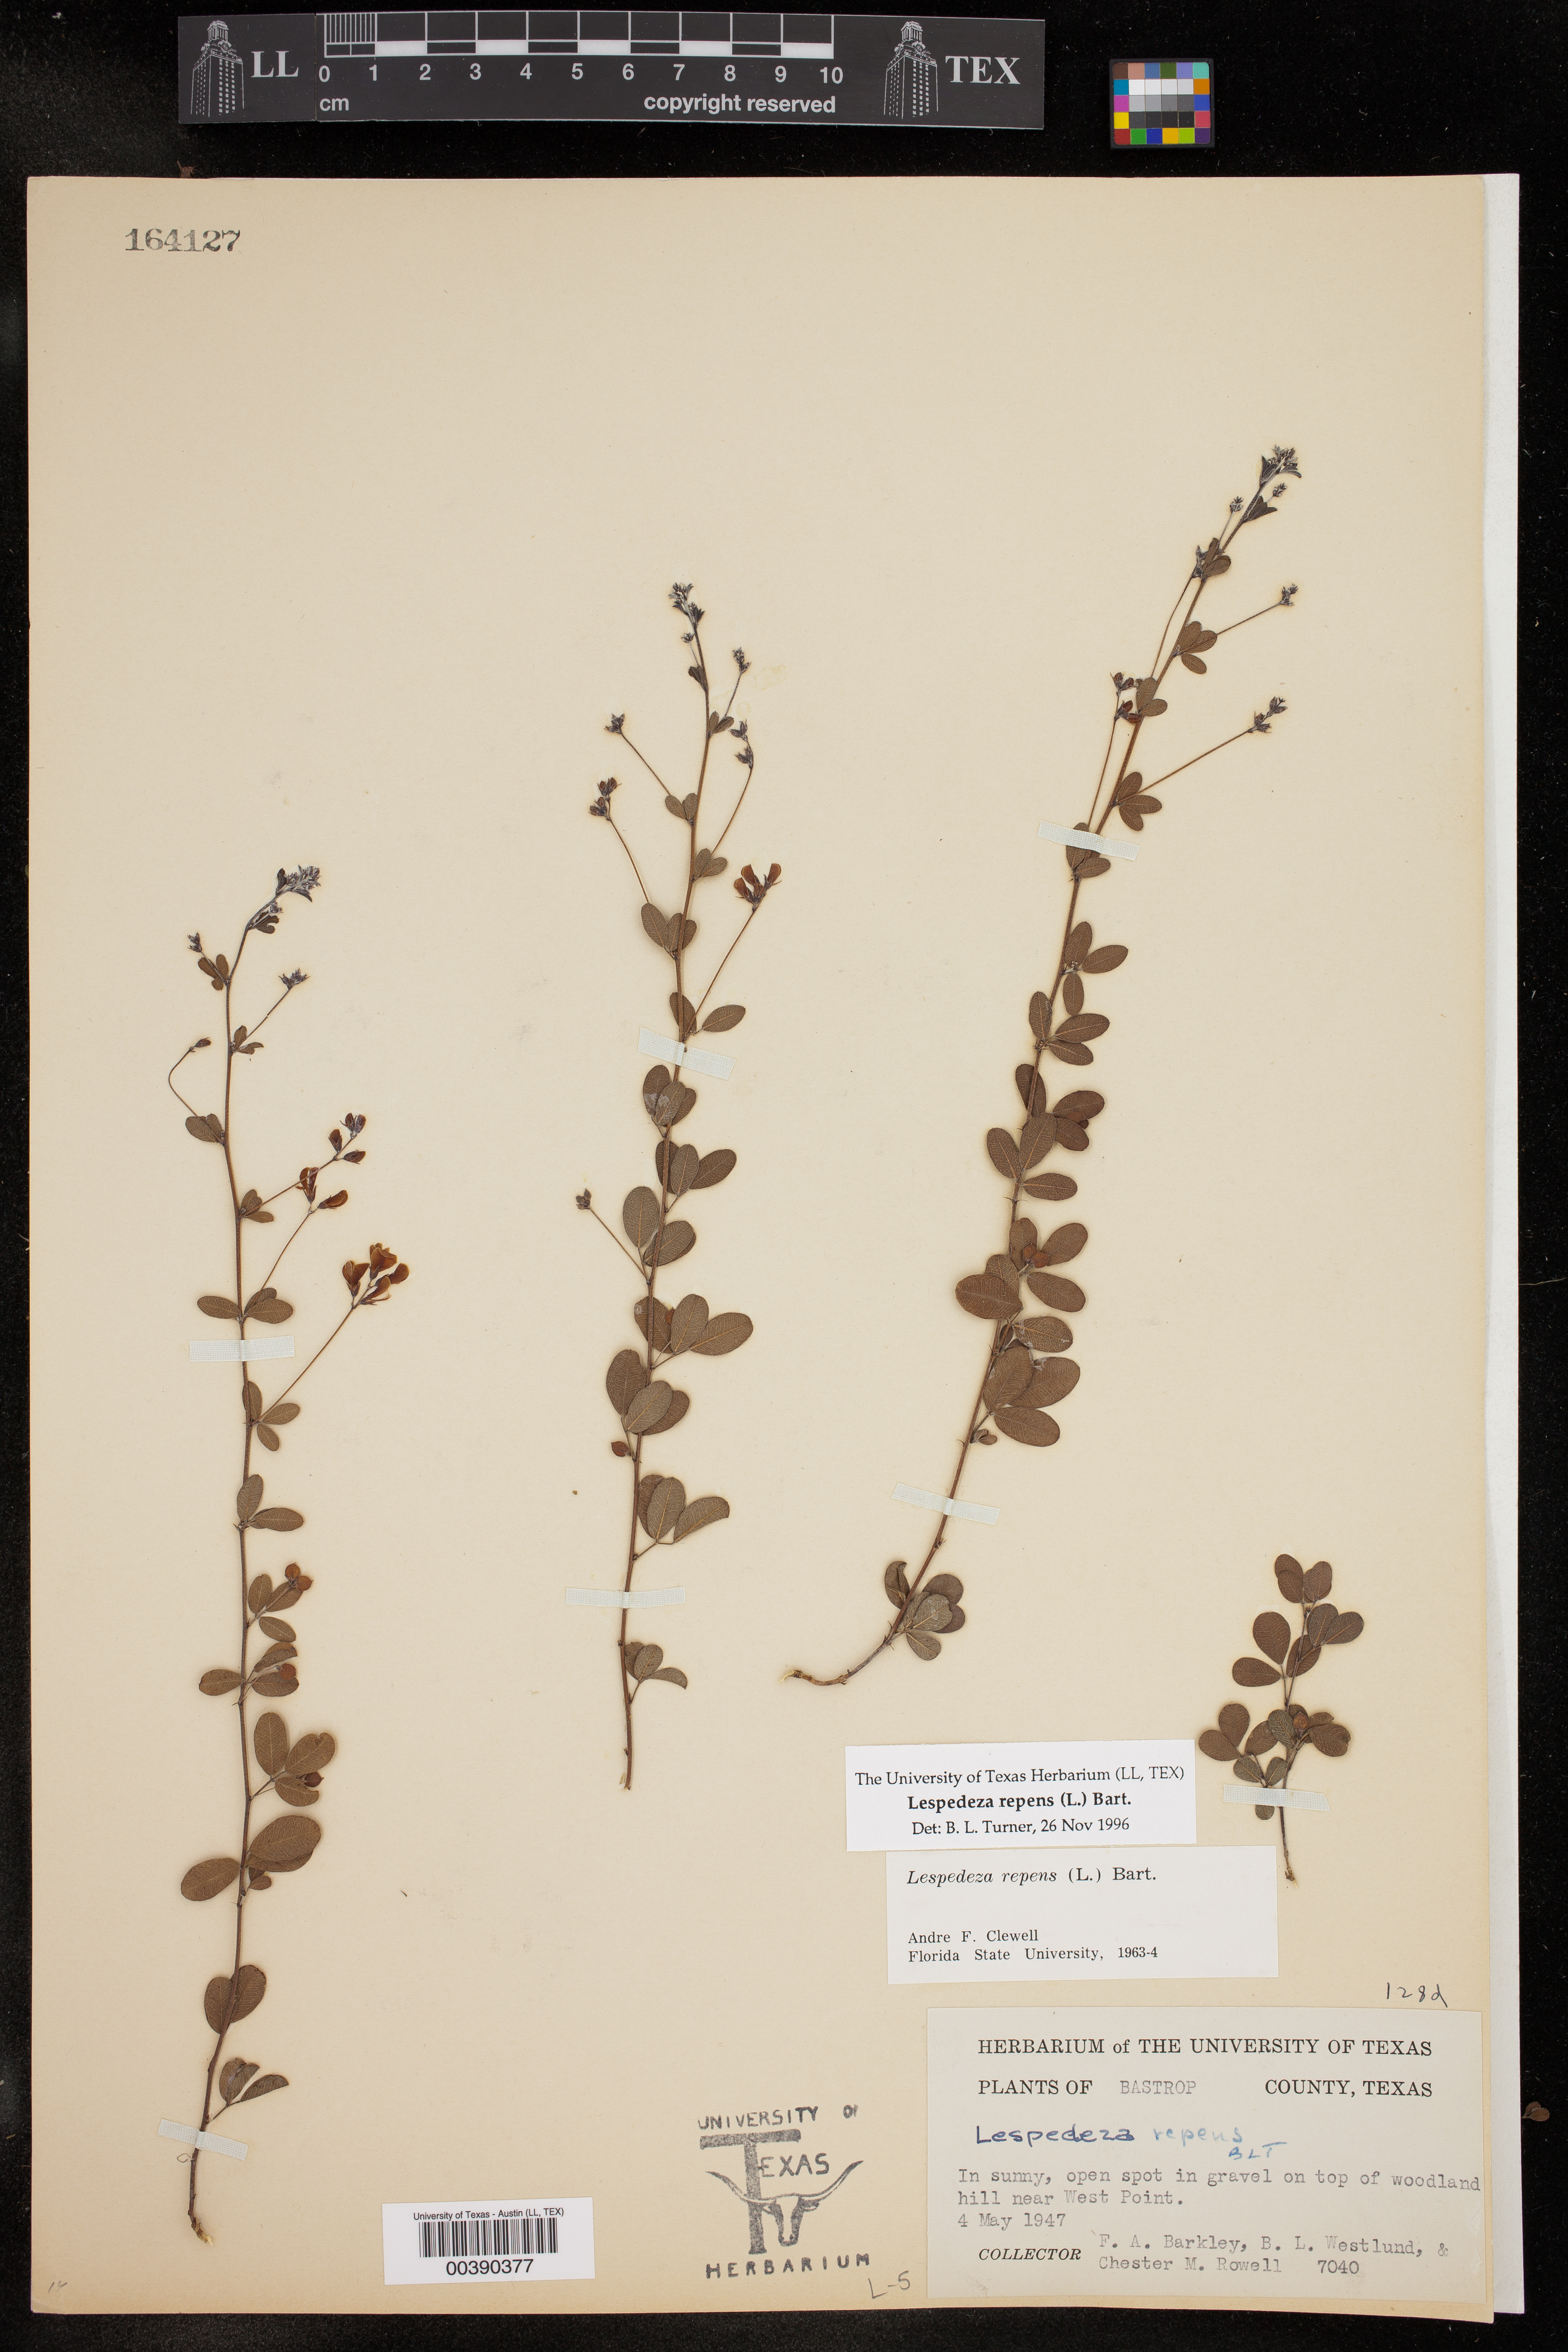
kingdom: Plantae
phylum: Tracheophyta
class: Magnoliopsida
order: Fabales
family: Fabaceae
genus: Lespedeza
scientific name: Lespedeza repens
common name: Creeping bush-clover
